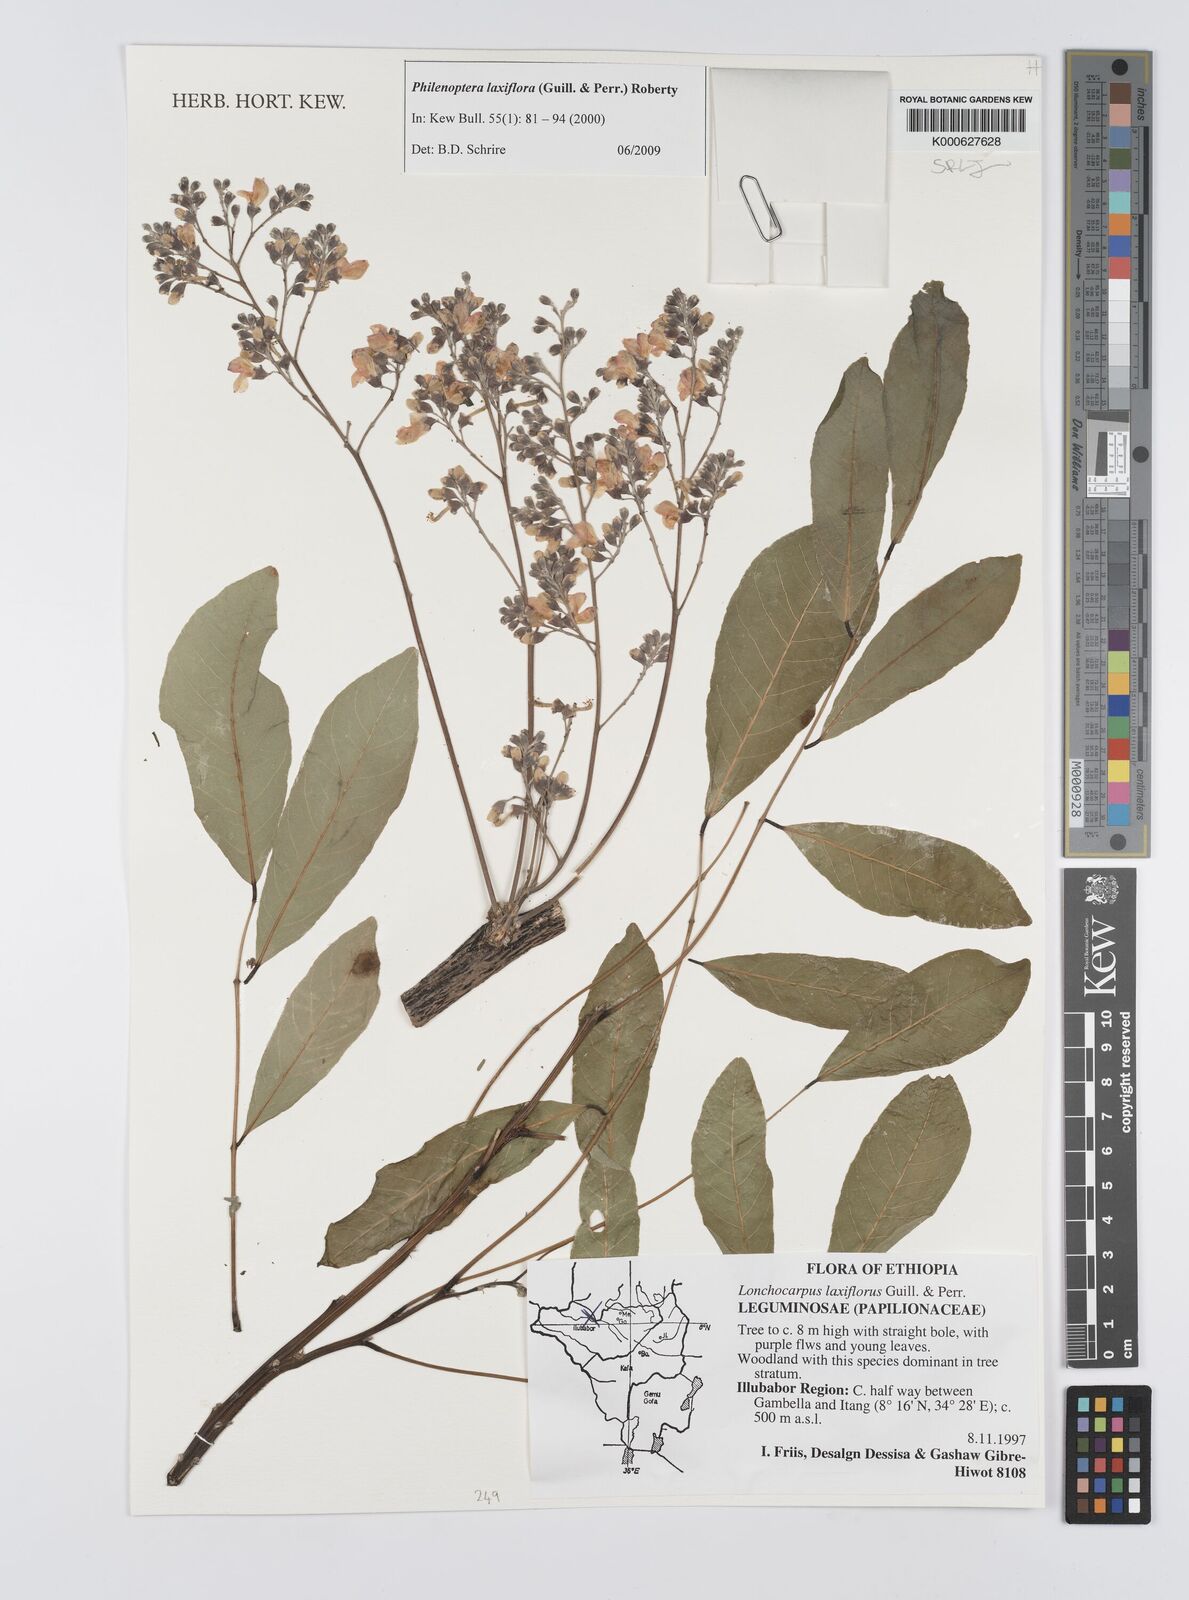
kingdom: Plantae
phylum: Tracheophyta
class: Magnoliopsida
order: Fabales
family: Fabaceae
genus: Philenoptera
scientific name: Philenoptera laxiflora
